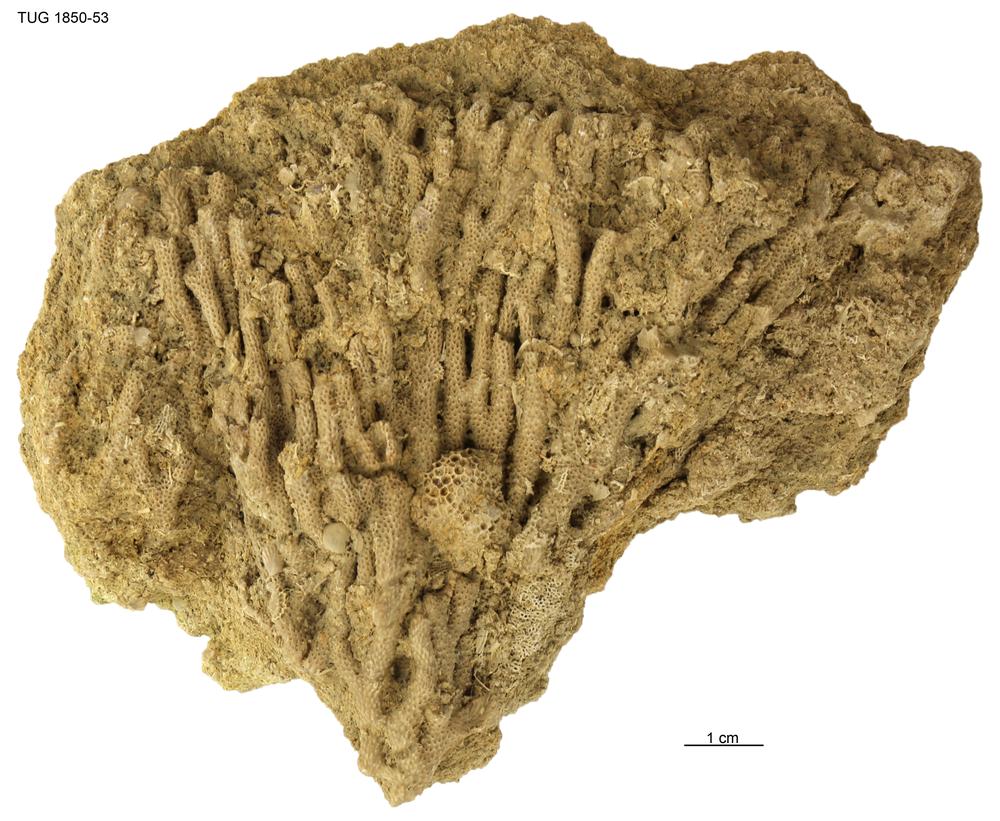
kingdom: Animalia
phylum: Cnidaria
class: Anthozoa
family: Coenitidae
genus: Coenites
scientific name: Coenites juniperinus
